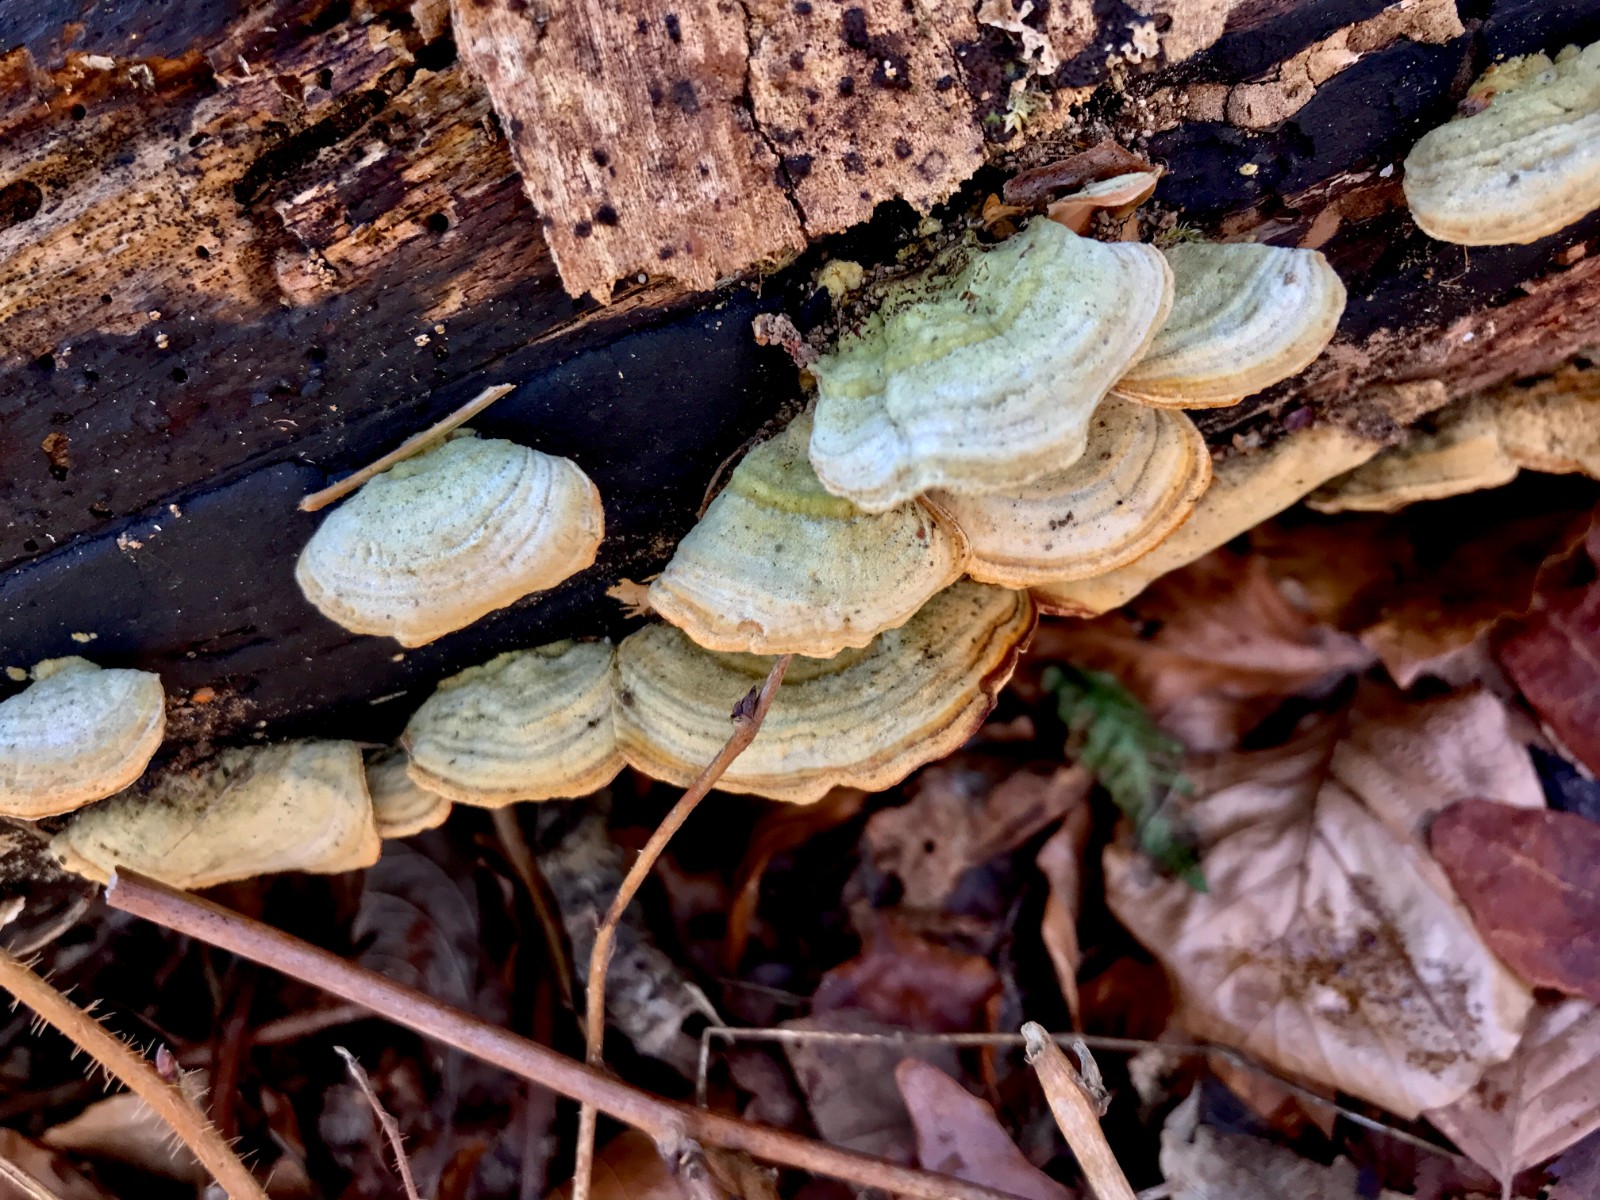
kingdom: Fungi
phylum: Basidiomycota
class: Agaricomycetes
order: Russulales
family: Stereaceae
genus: Stereum
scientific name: Stereum subtomentosum
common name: smuk lædersvamp
